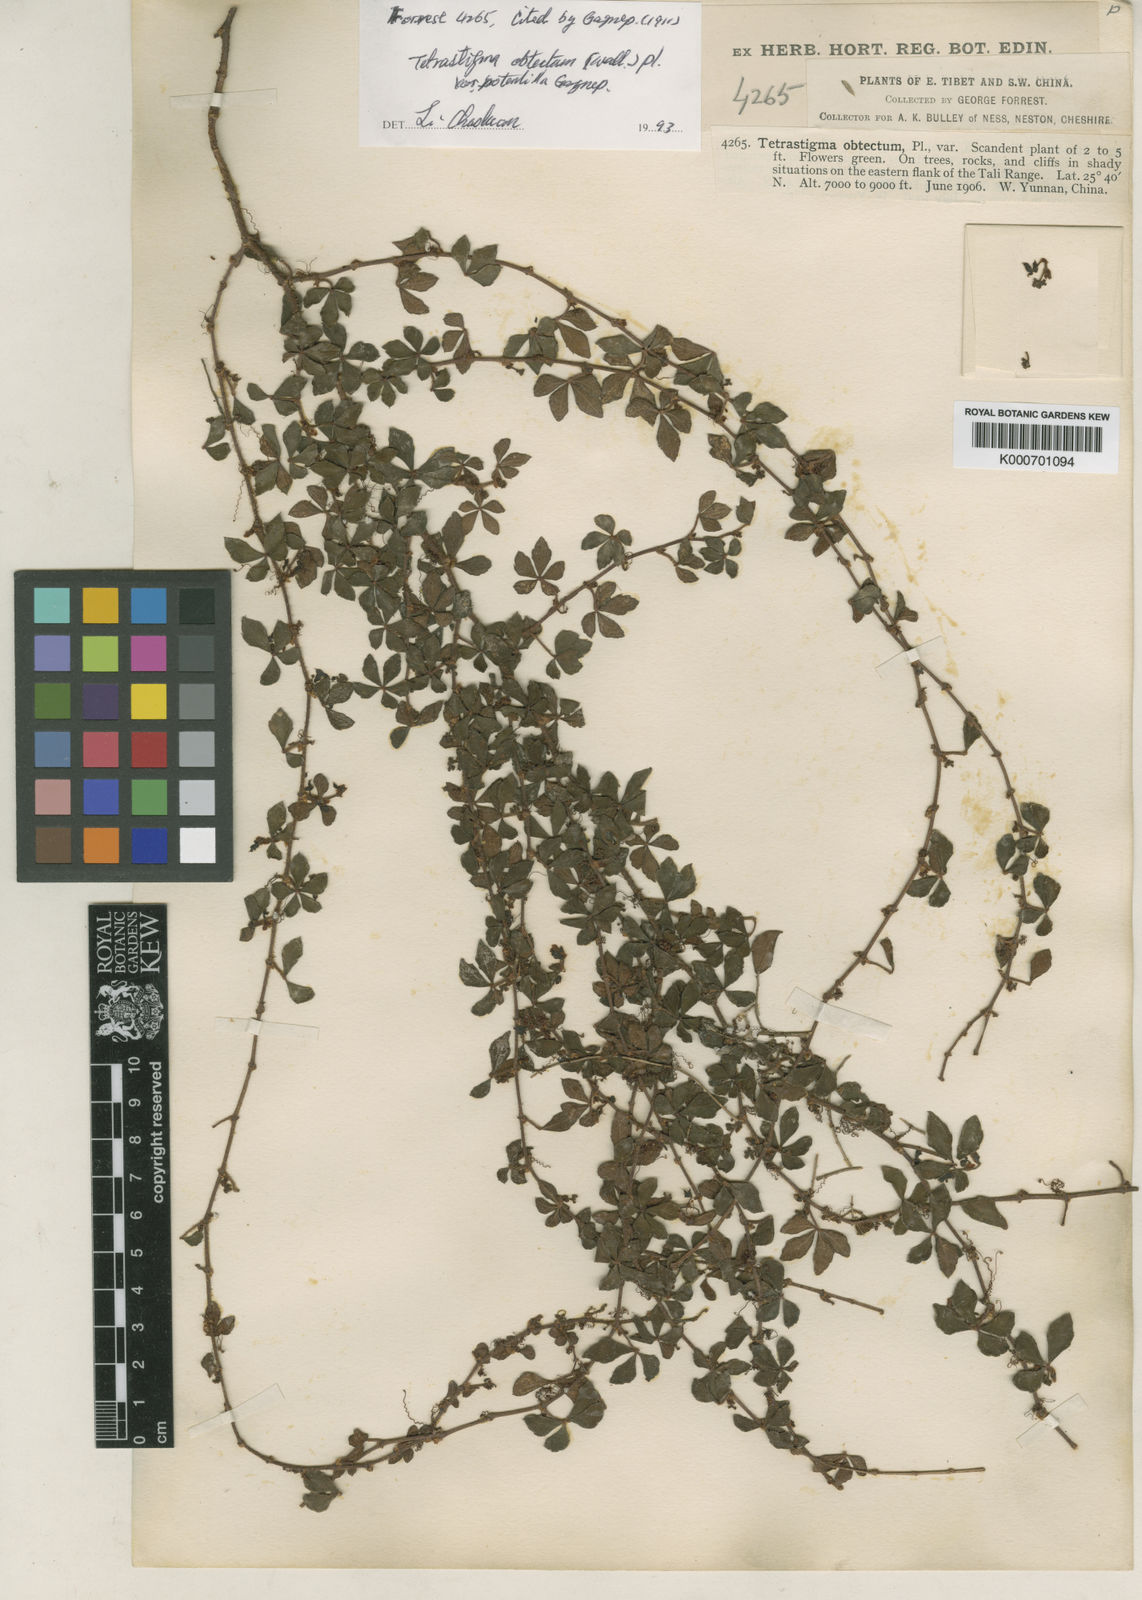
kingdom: Plantae
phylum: Tracheophyta
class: Magnoliopsida
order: Vitales
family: Vitaceae
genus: Tetrastigma
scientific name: Tetrastigma
